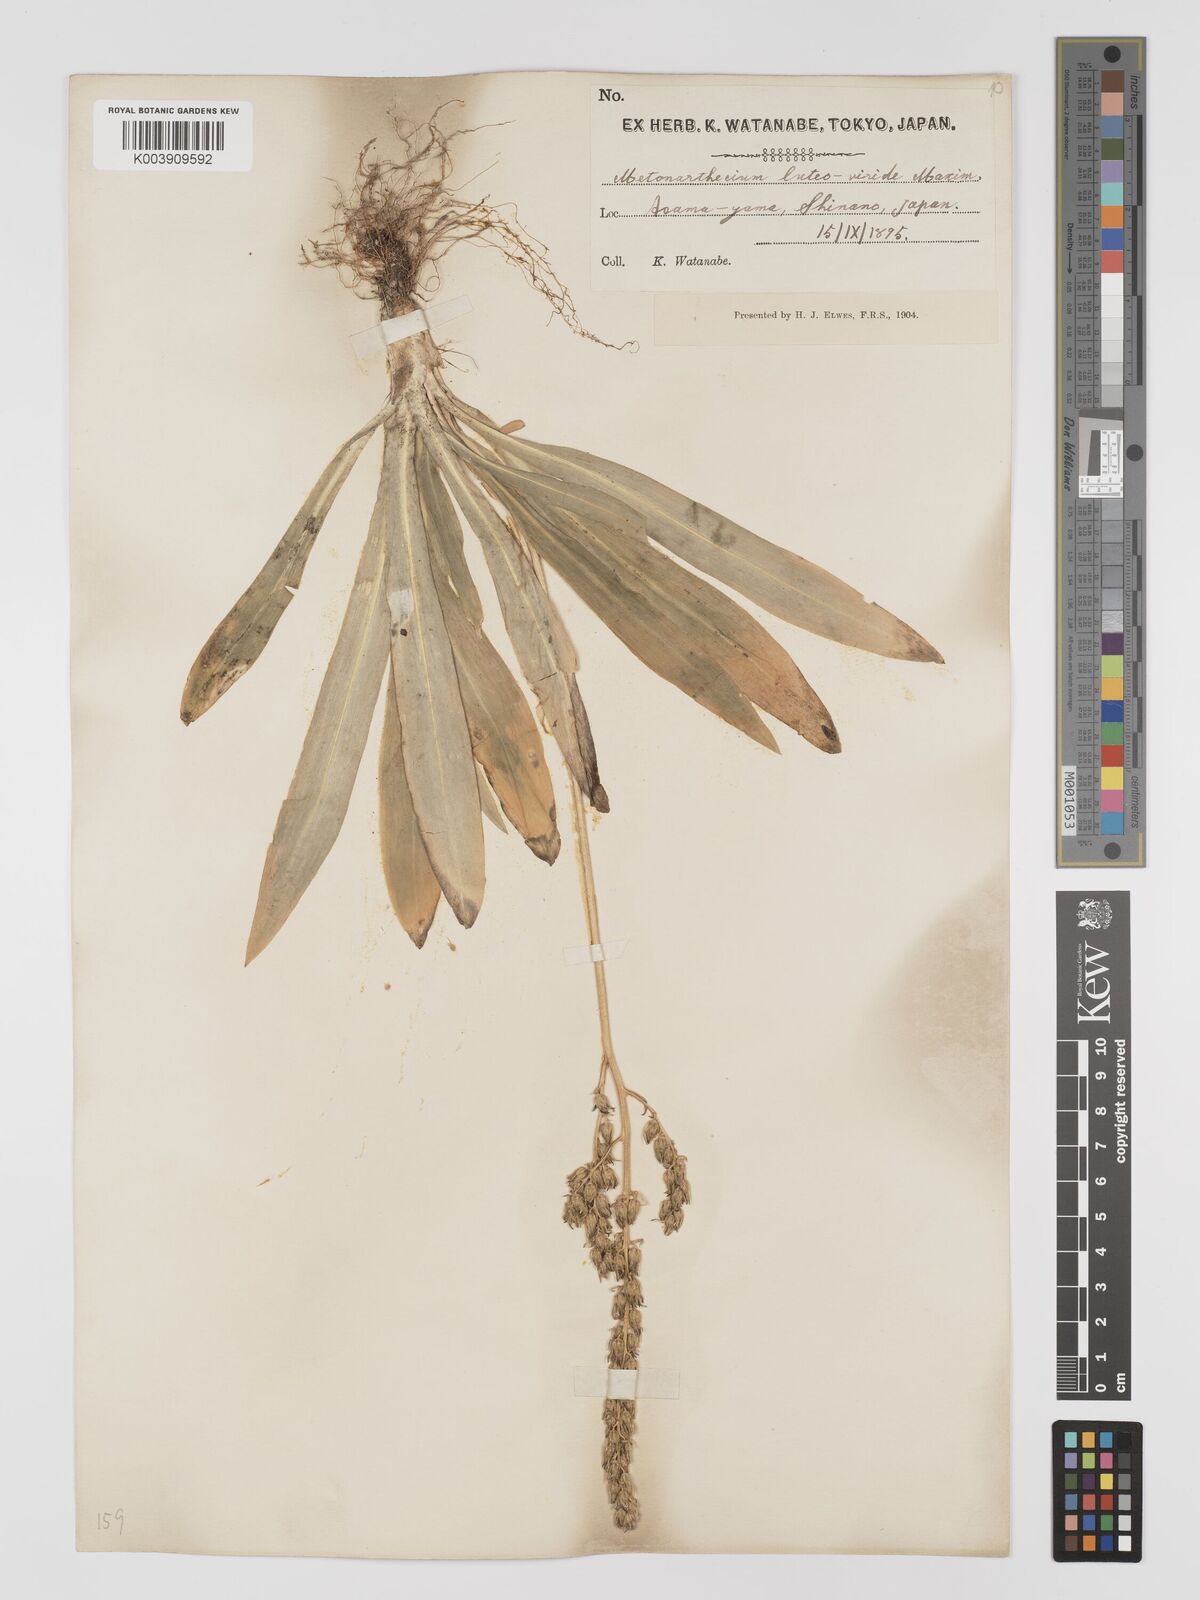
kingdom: Plantae
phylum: Tracheophyta
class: Liliopsida
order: Dioscoreales
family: Nartheciaceae
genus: Metanarthecium
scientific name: Metanarthecium luteoviride
